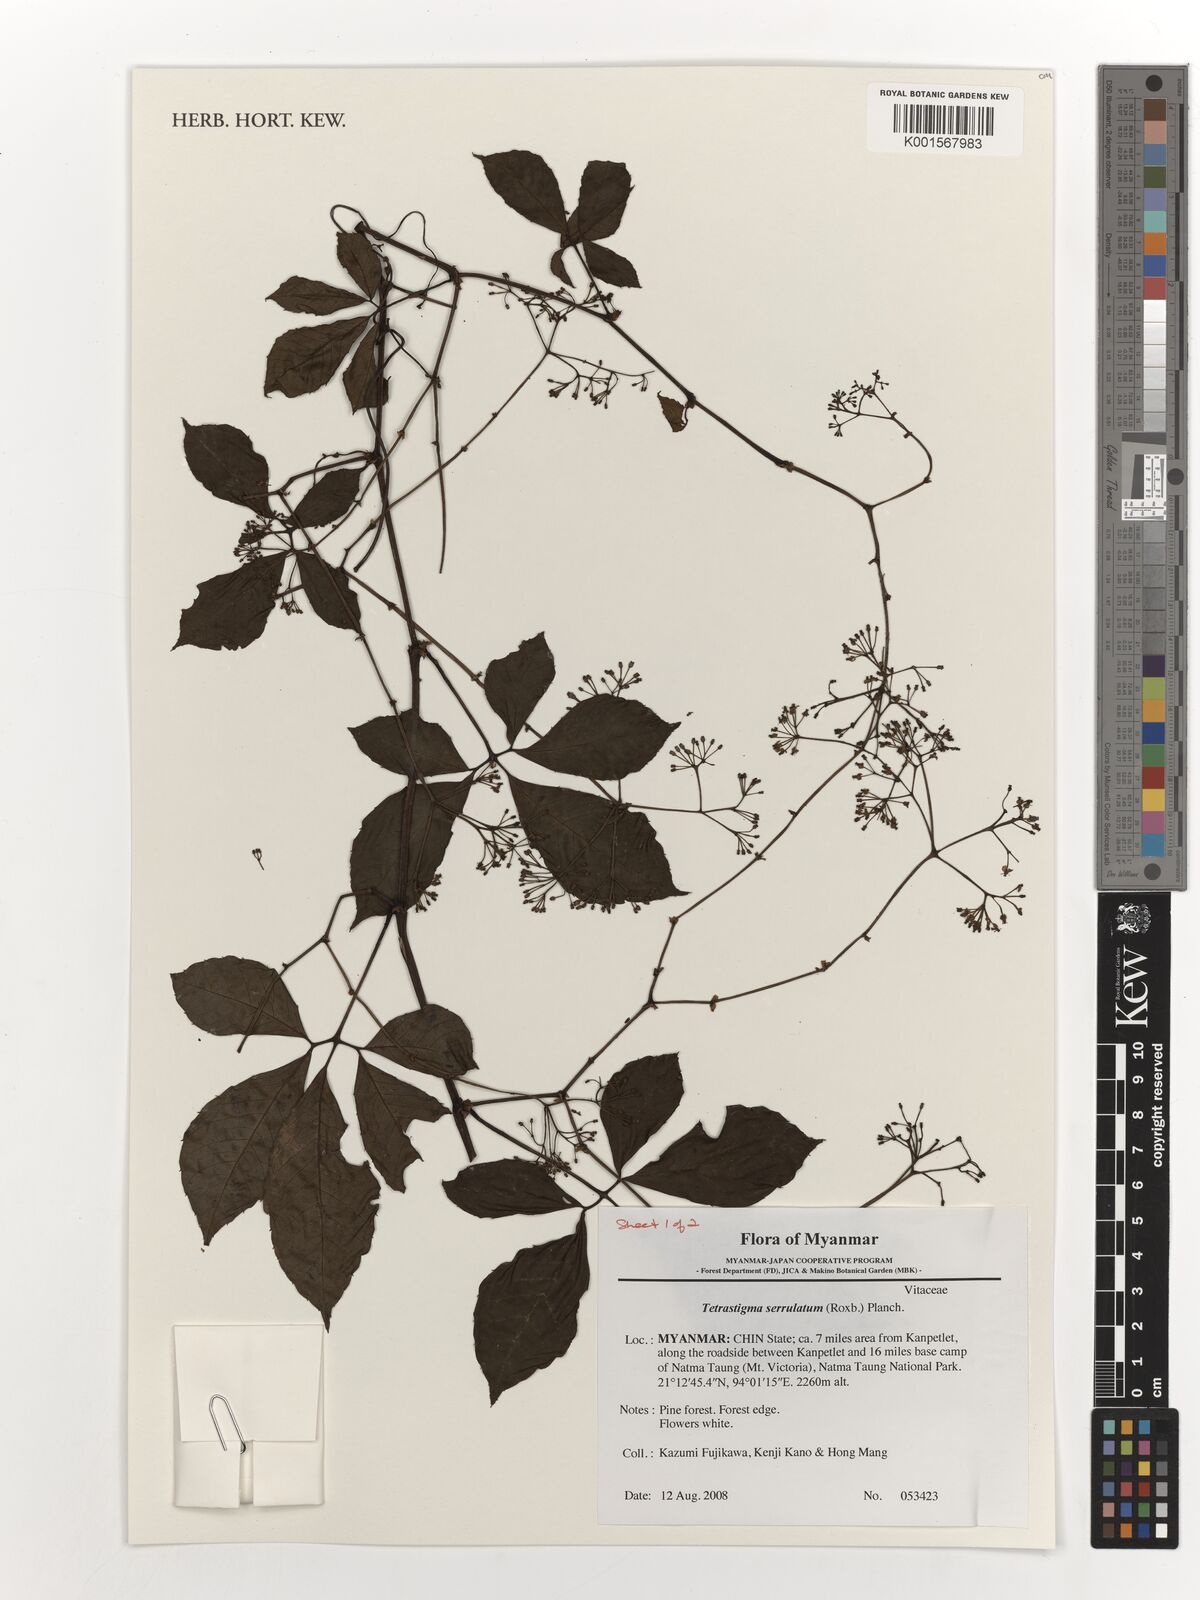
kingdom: Plantae
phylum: Tracheophyta
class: Magnoliopsida
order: Vitales
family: Vitaceae
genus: Tetrastigma
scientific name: Tetrastigma serrulatum
